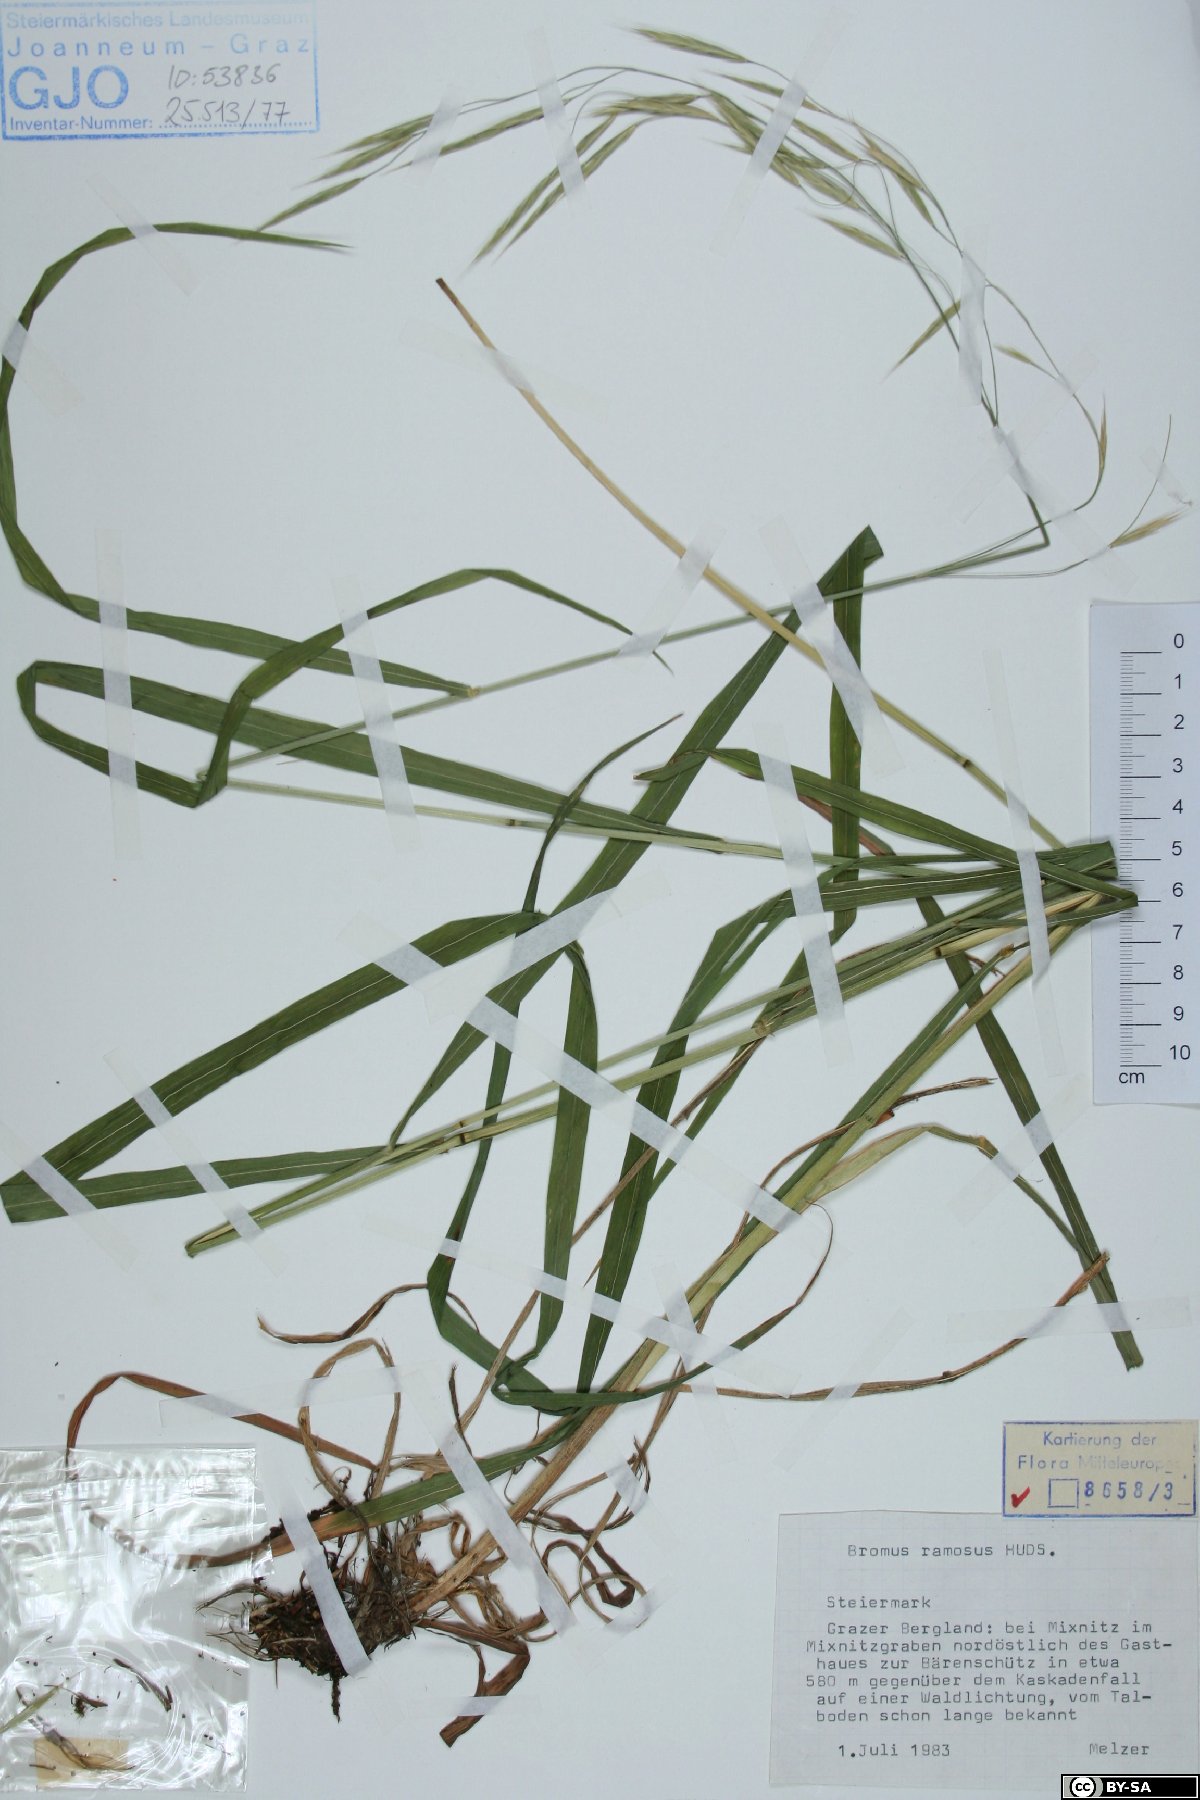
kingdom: Plantae
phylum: Tracheophyta
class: Liliopsida
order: Poales
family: Poaceae
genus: Bromus
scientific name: Bromus ramosus
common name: Hairy brome
